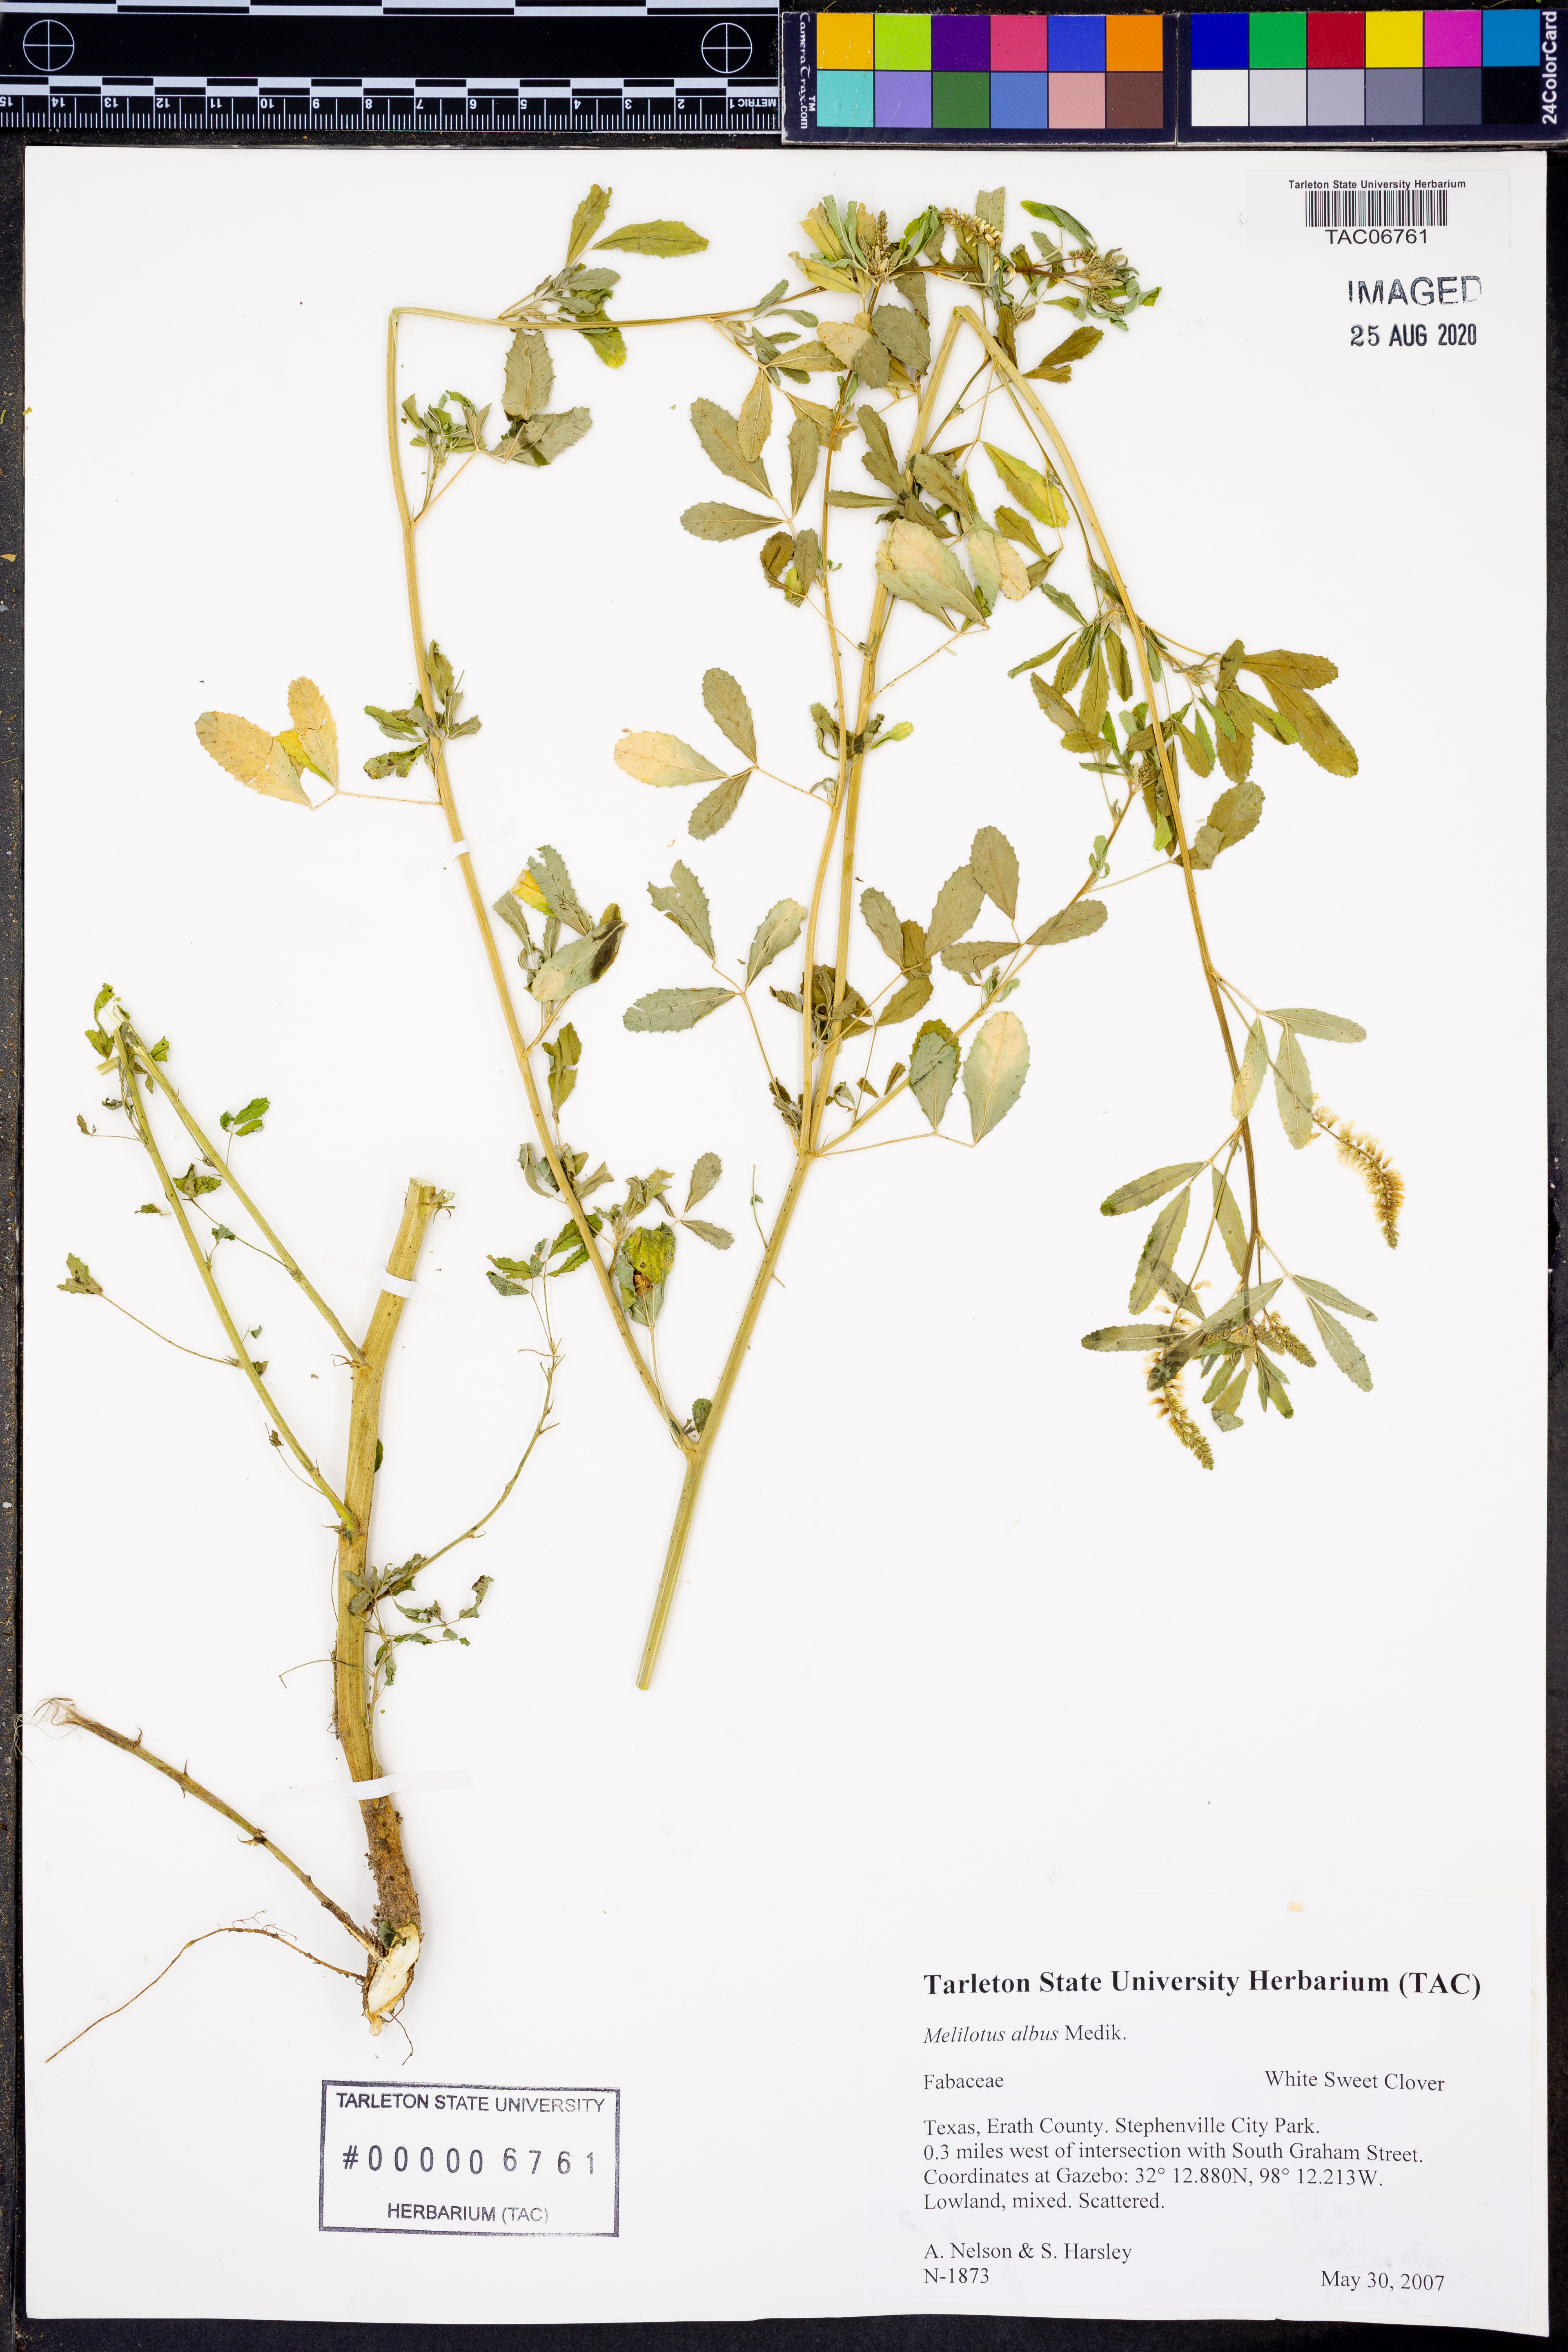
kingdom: Plantae
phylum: Tracheophyta
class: Magnoliopsida
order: Fabales
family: Fabaceae
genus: Melilotus
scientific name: Melilotus albus
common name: White melilot
